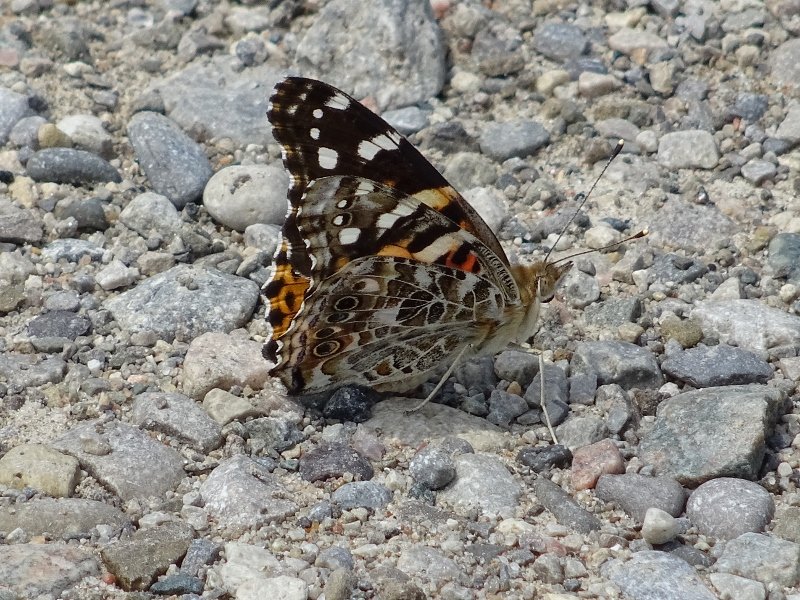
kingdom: Animalia
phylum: Arthropoda
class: Insecta
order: Lepidoptera
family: Nymphalidae
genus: Vanessa
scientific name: Vanessa cardui
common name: Painted Lady
